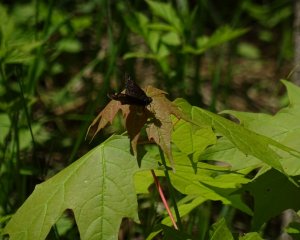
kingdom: Animalia
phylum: Arthropoda
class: Insecta
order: Lepidoptera
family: Hesperiidae
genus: Gesta
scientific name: Gesta
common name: Wild Indigo Duskywing
